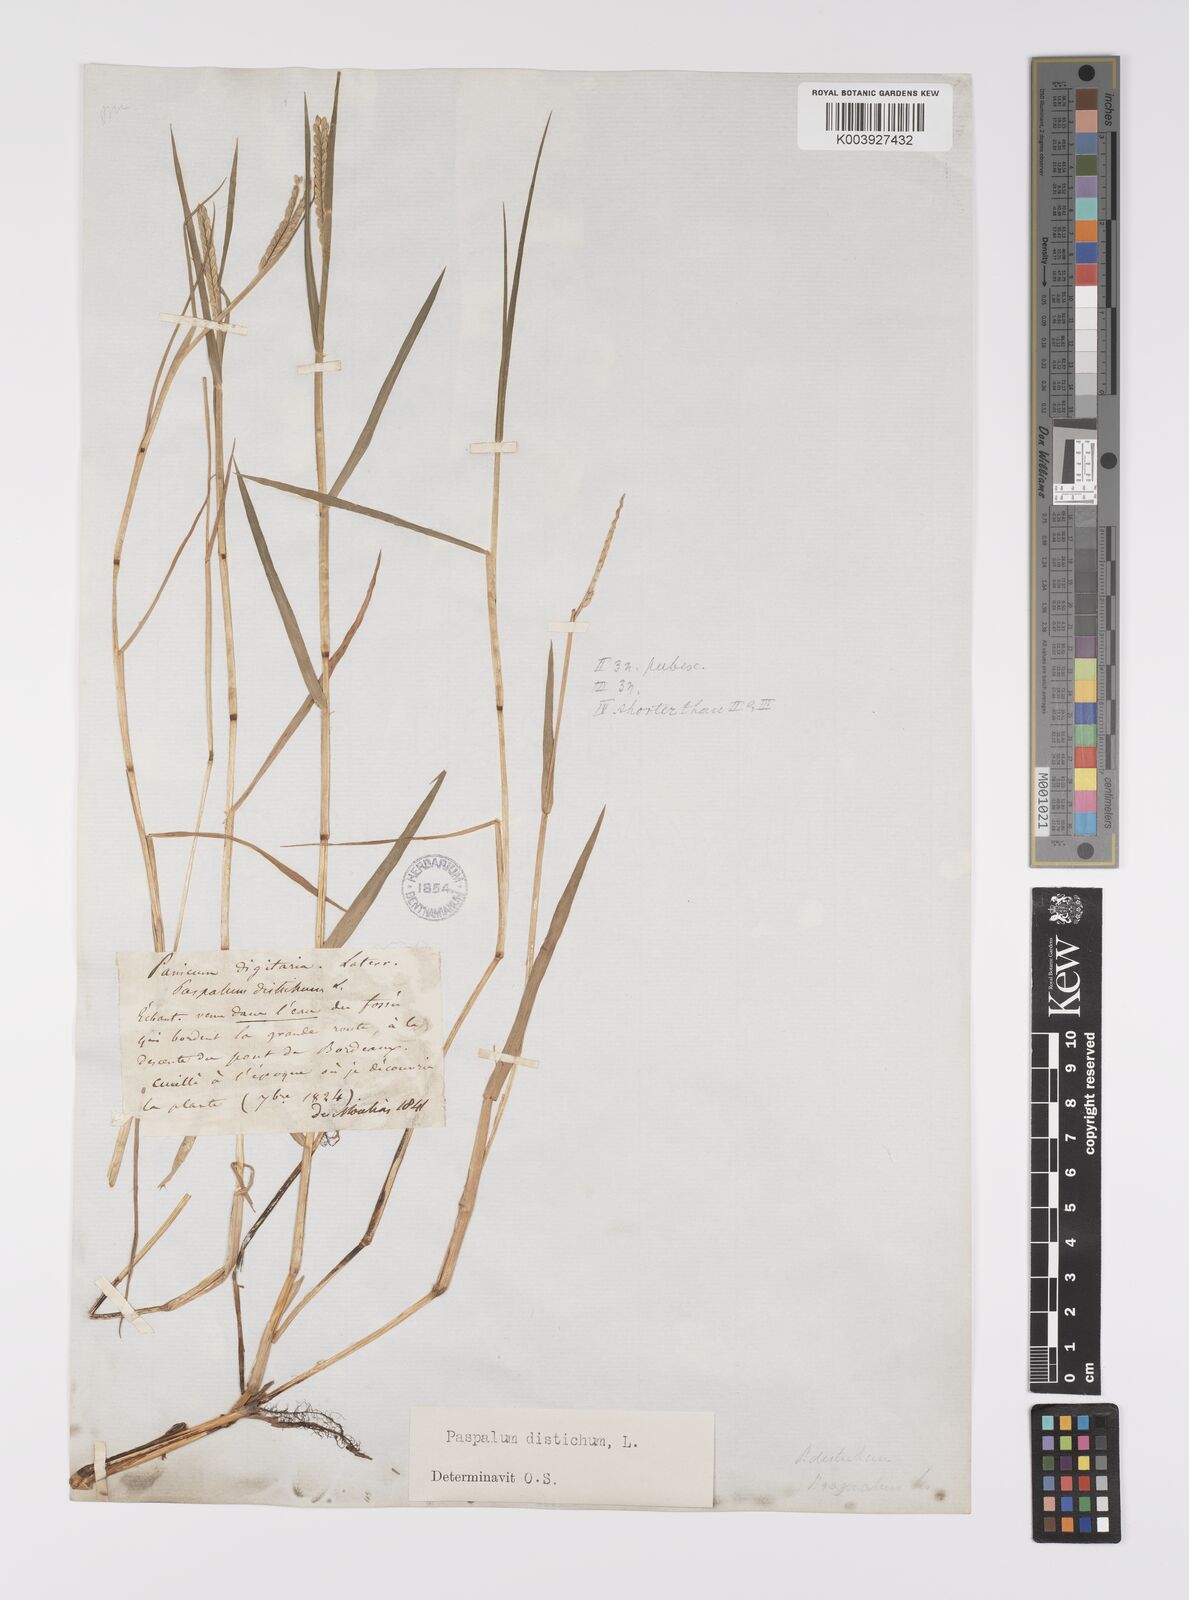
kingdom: Plantae
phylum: Tracheophyta
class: Liliopsida
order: Poales
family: Poaceae
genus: Paspalum
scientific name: Paspalum distichum
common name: Knotgrass
